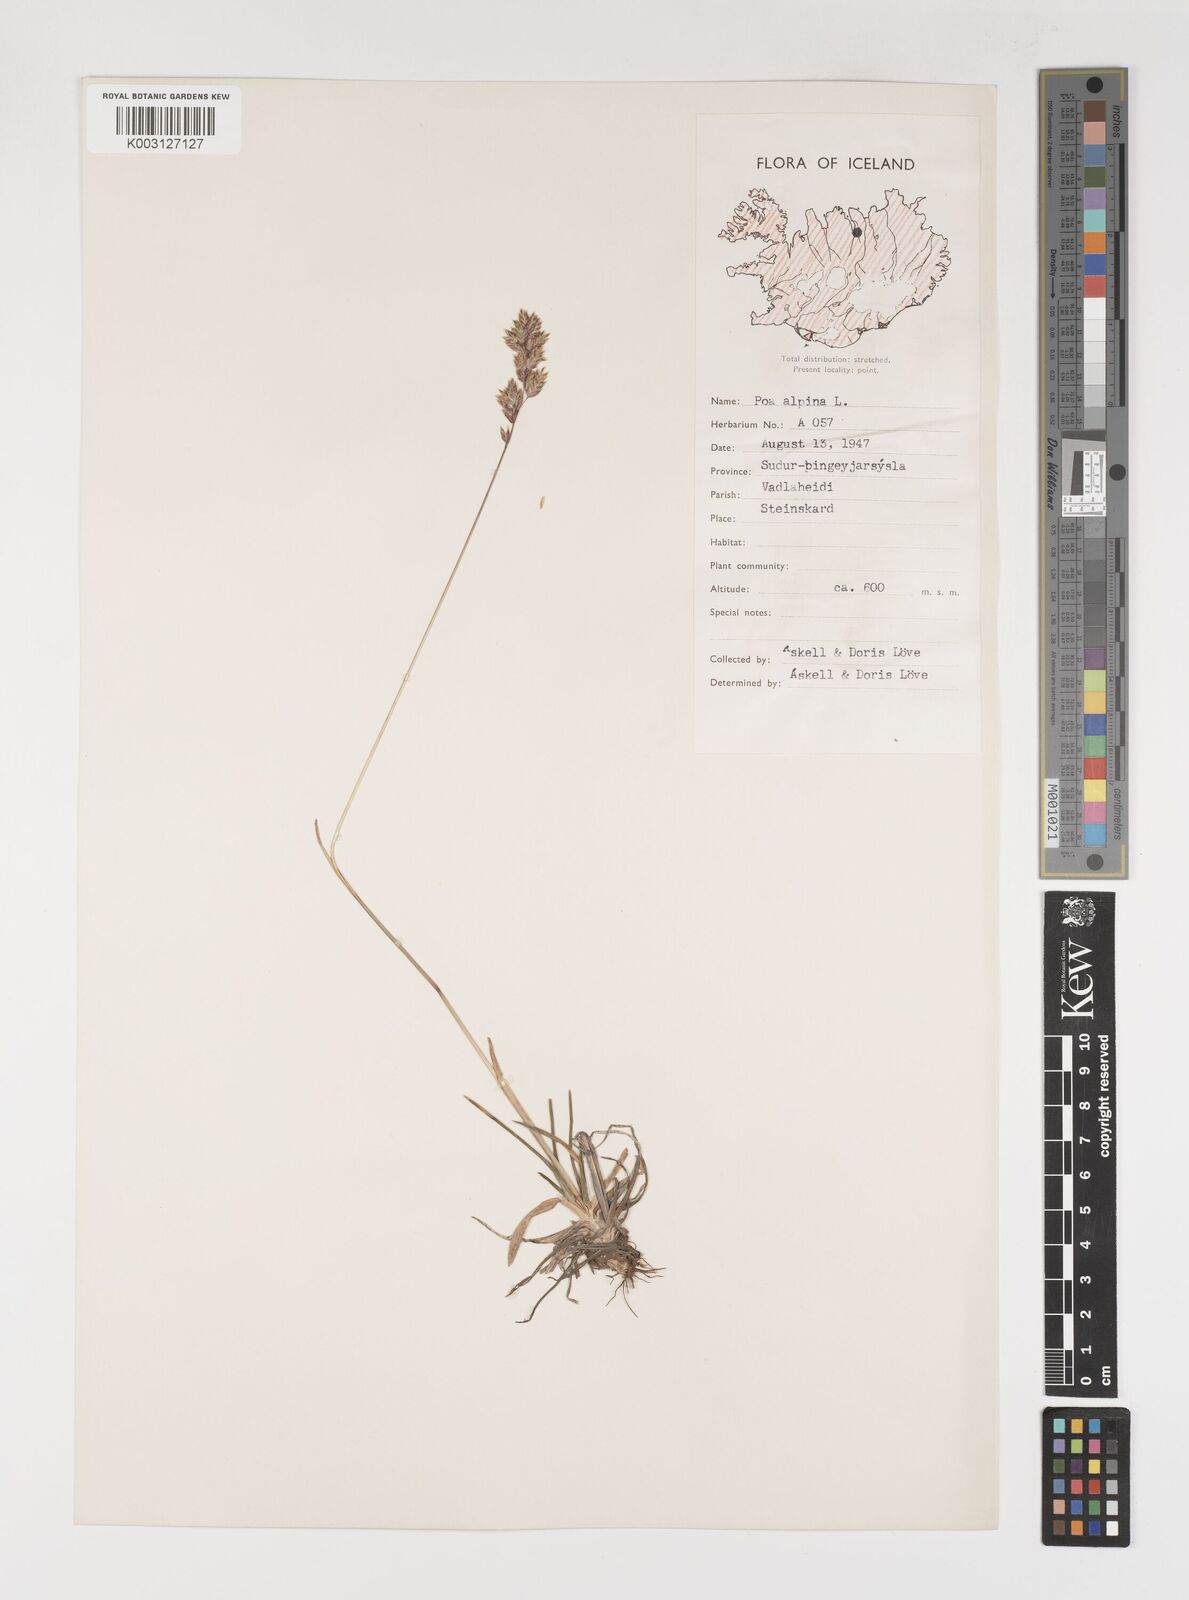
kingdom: Plantae
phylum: Tracheophyta
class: Liliopsida
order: Poales
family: Poaceae
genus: Poa
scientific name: Poa alpina
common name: Alpine bluegrass
